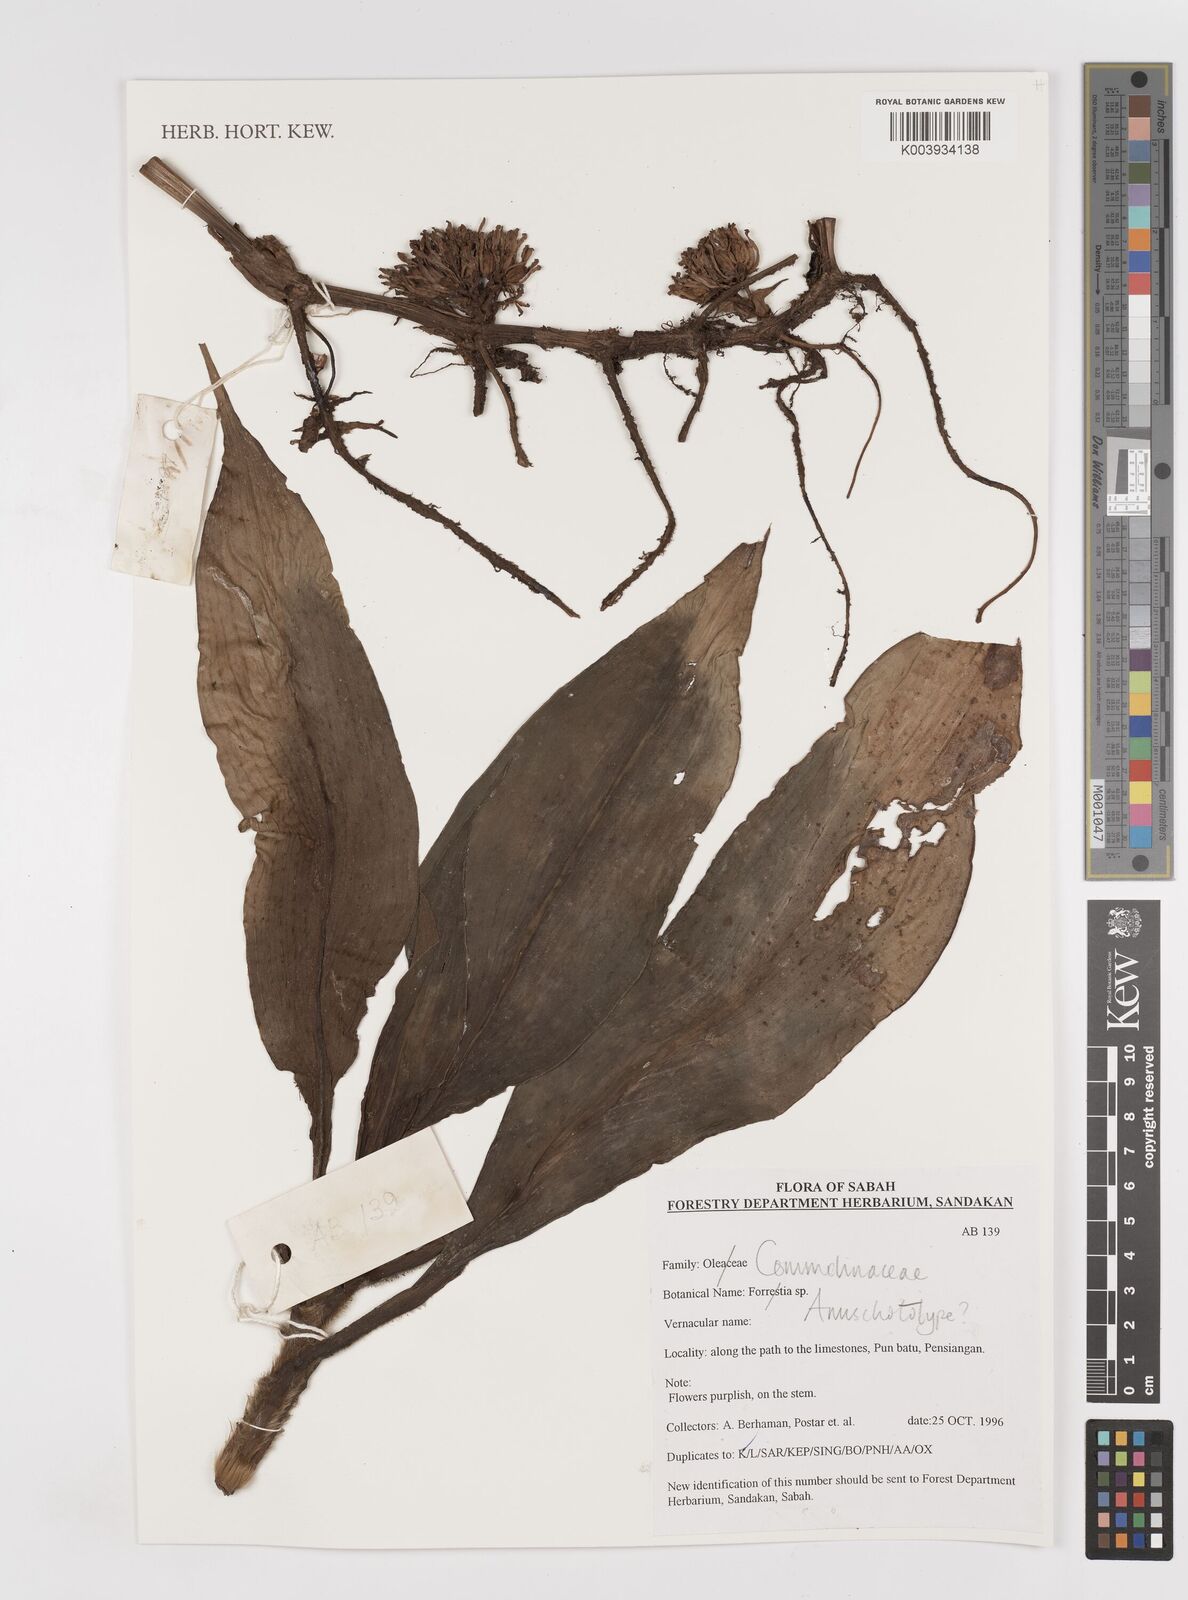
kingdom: Plantae
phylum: Tracheophyta
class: Liliopsida
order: Commelinales
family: Commelinaceae
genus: Amischotolype
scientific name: Amischotolype
